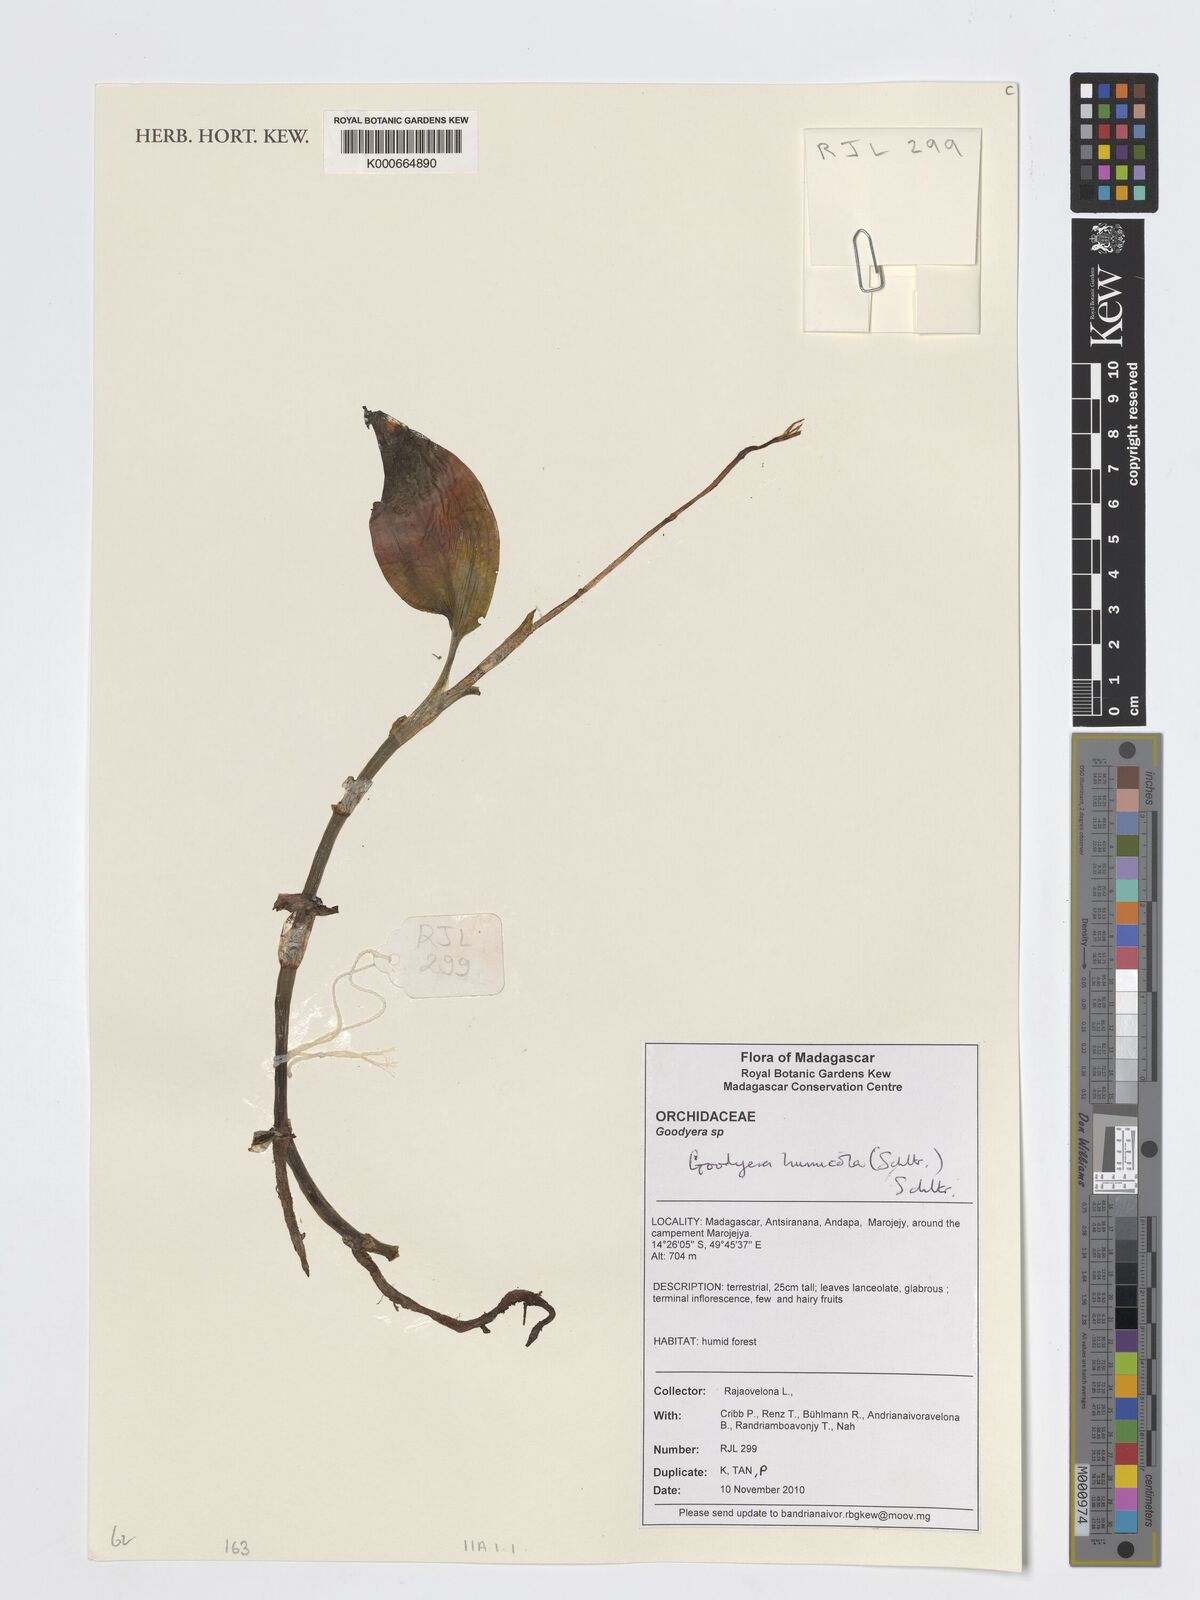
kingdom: Plantae
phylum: Tracheophyta
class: Liliopsida
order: Asparagales
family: Orchidaceae
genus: Goodyera
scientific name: Goodyera humicola
